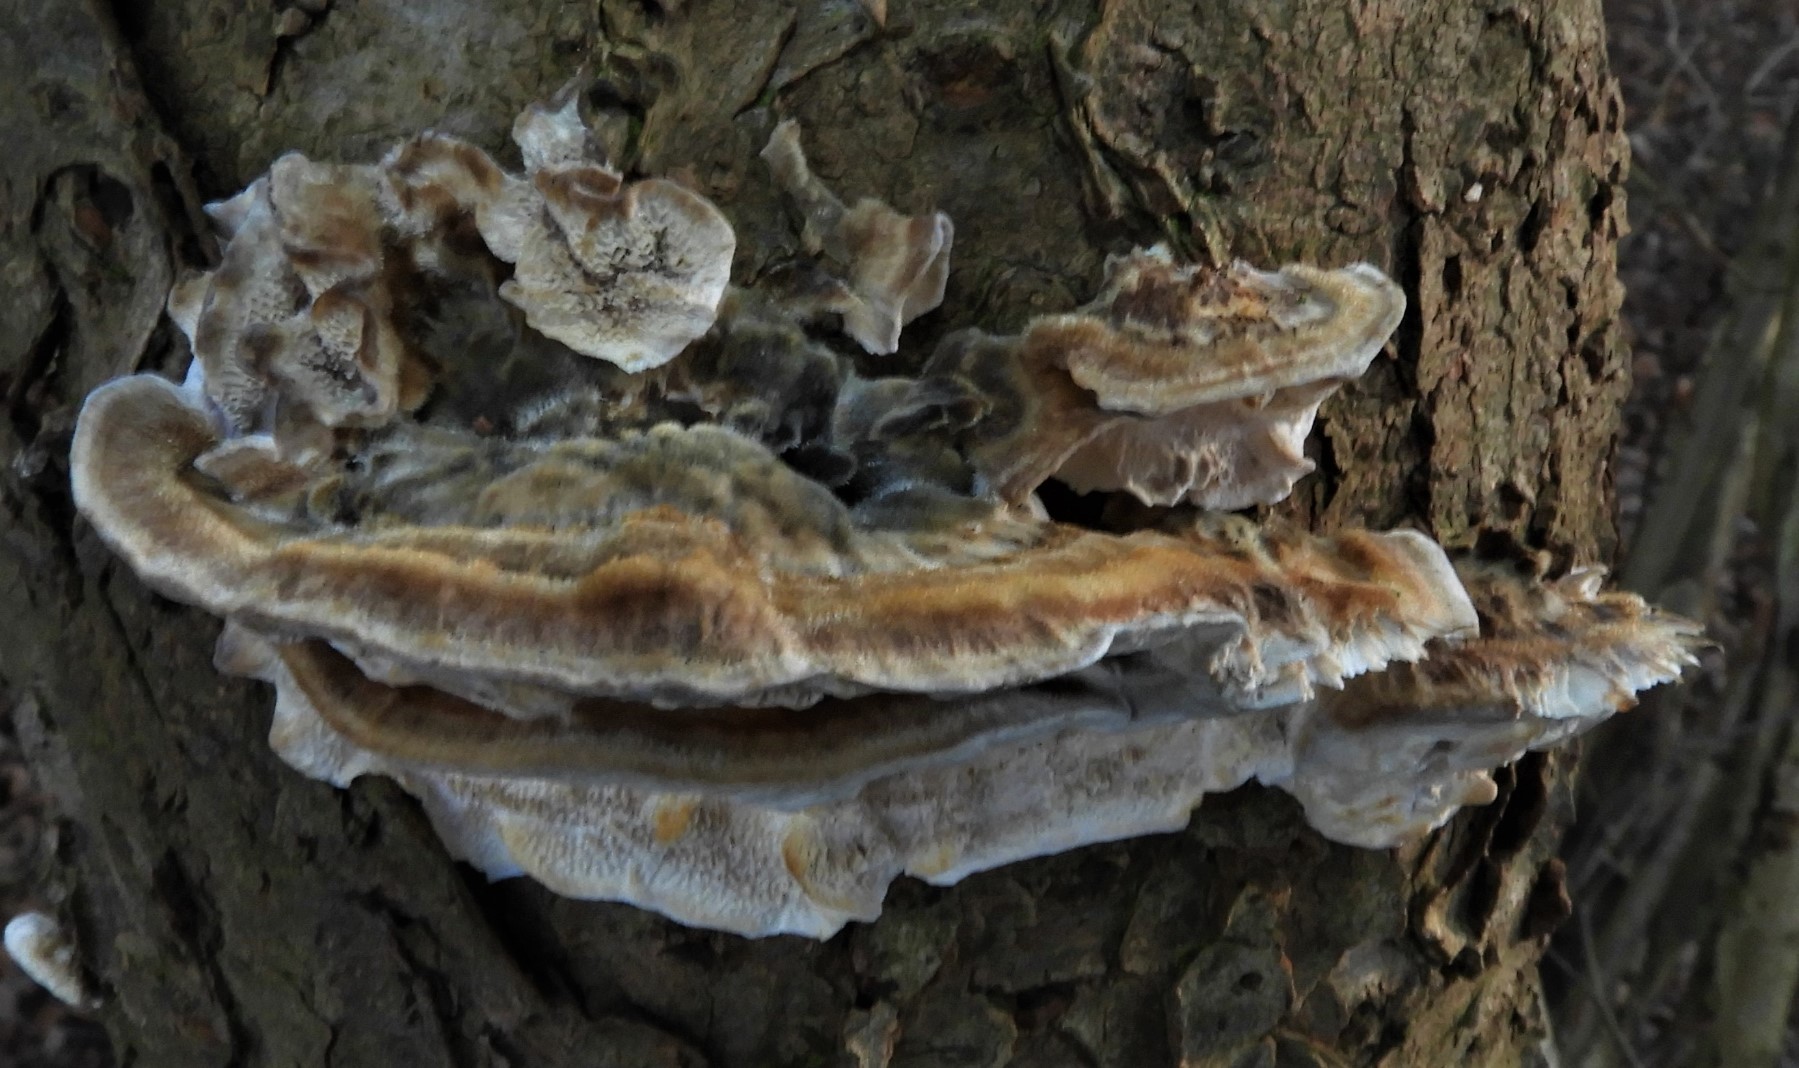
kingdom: Fungi
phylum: Basidiomycota
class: Agaricomycetes
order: Polyporales
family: Polyporaceae
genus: Trametes
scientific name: Trametes versicolor
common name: broget læderporesvamp
